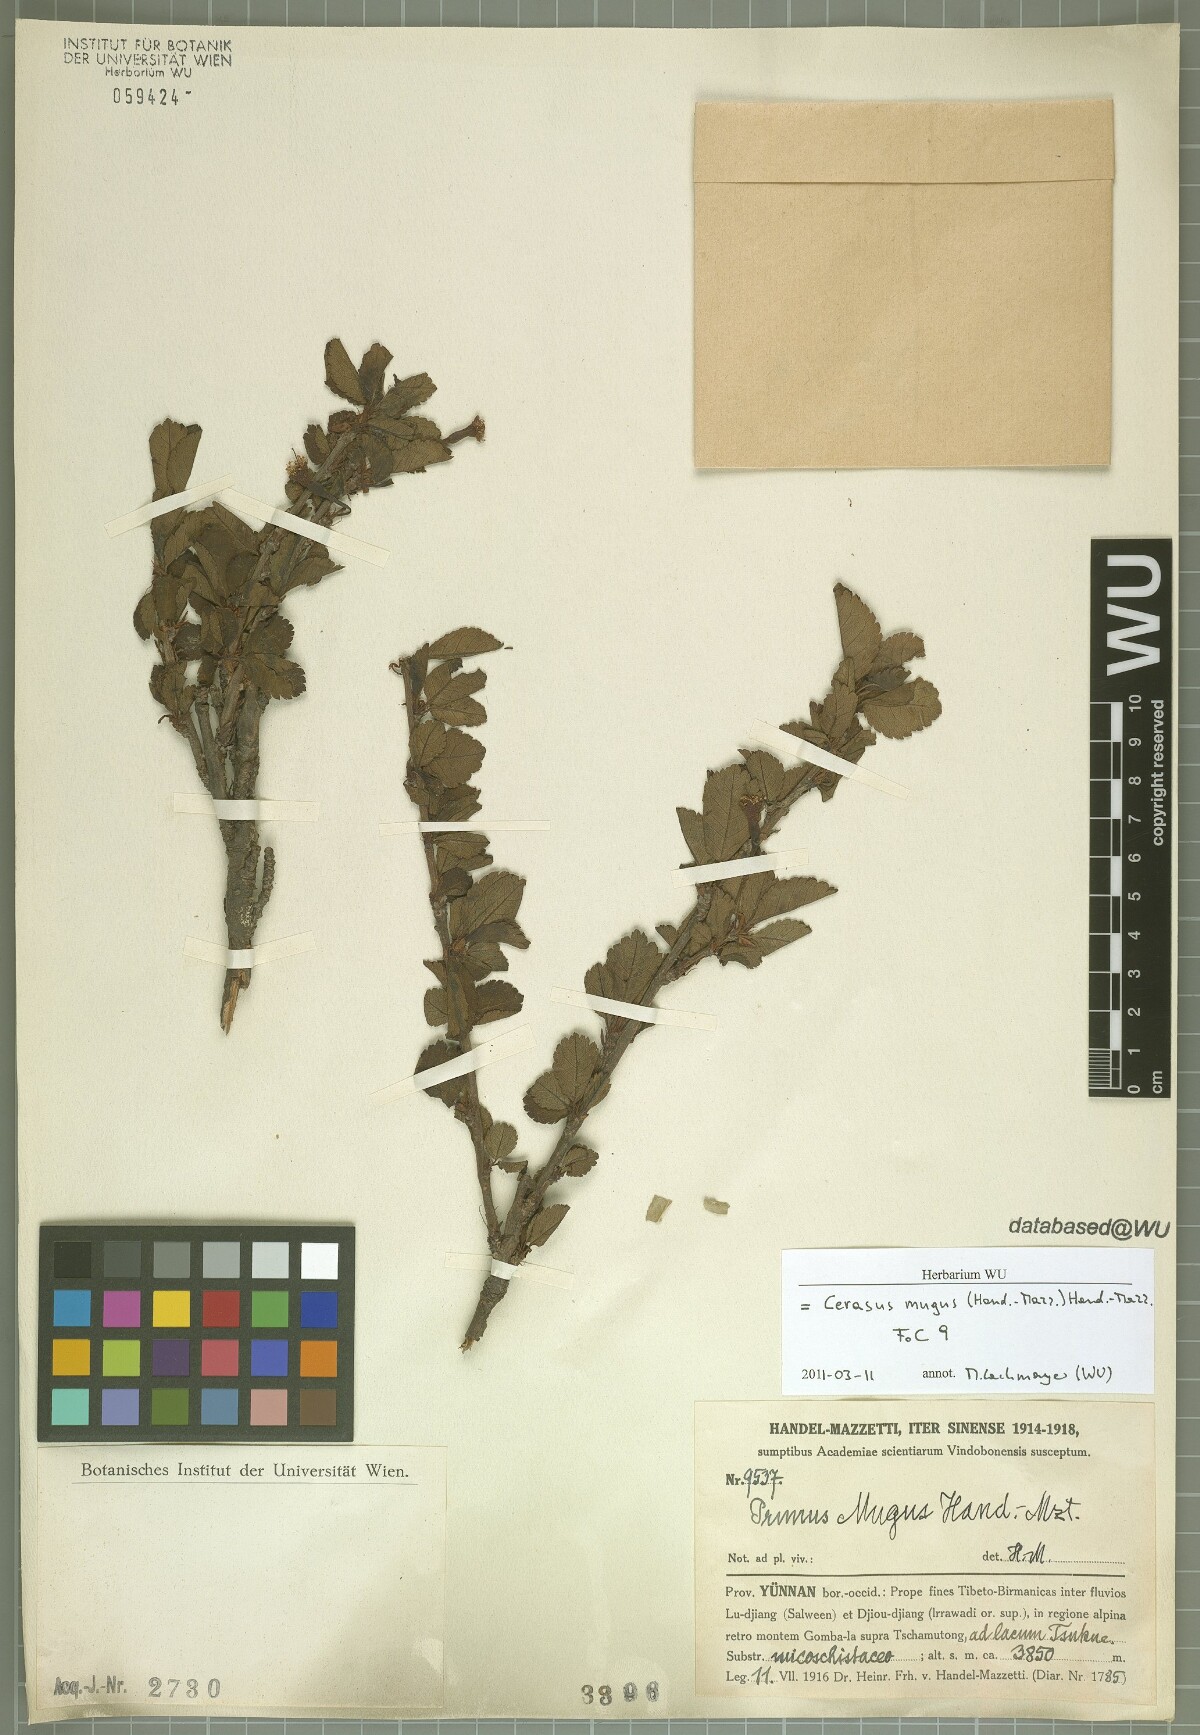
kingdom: Plantae
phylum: Tracheophyta
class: Magnoliopsida
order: Rosales
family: Rosaceae
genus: Prunus
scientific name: Prunus mugus
